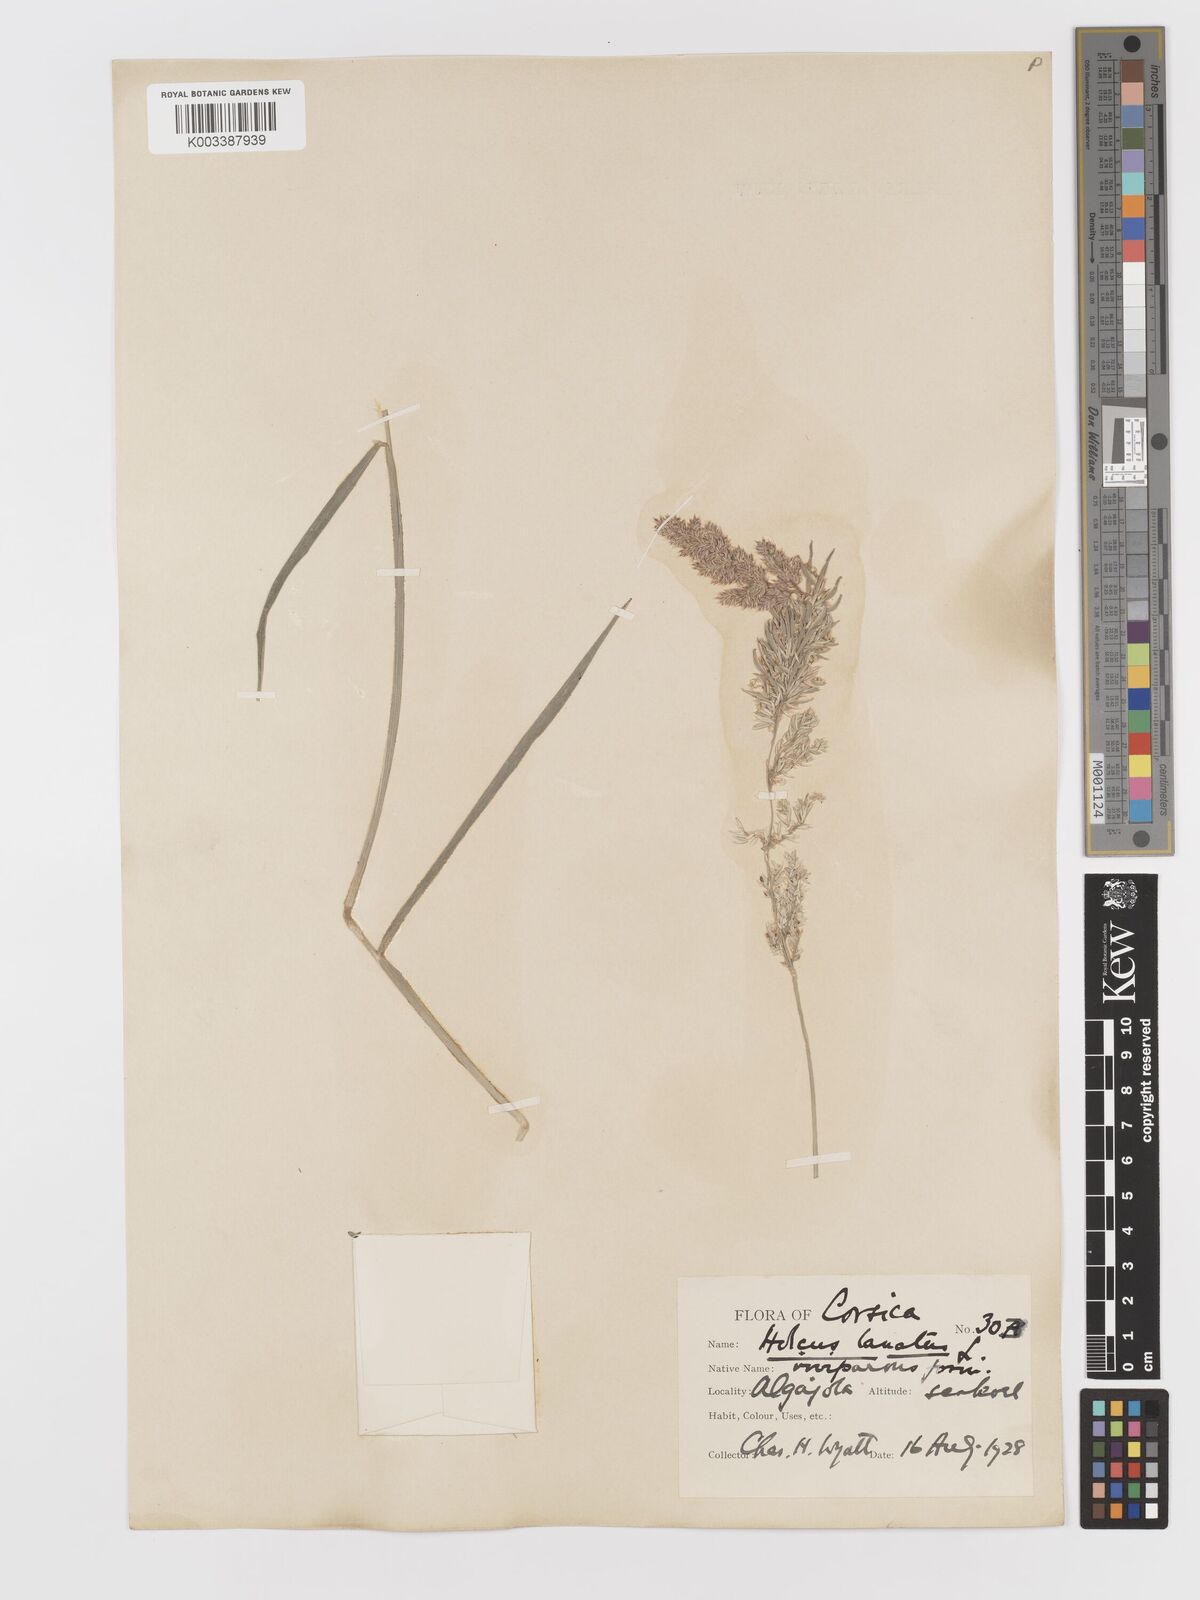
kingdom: Plantae
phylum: Tracheophyta
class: Liliopsida
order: Poales
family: Poaceae
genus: Holcus
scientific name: Holcus lanatus
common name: Yorkshire-fog
